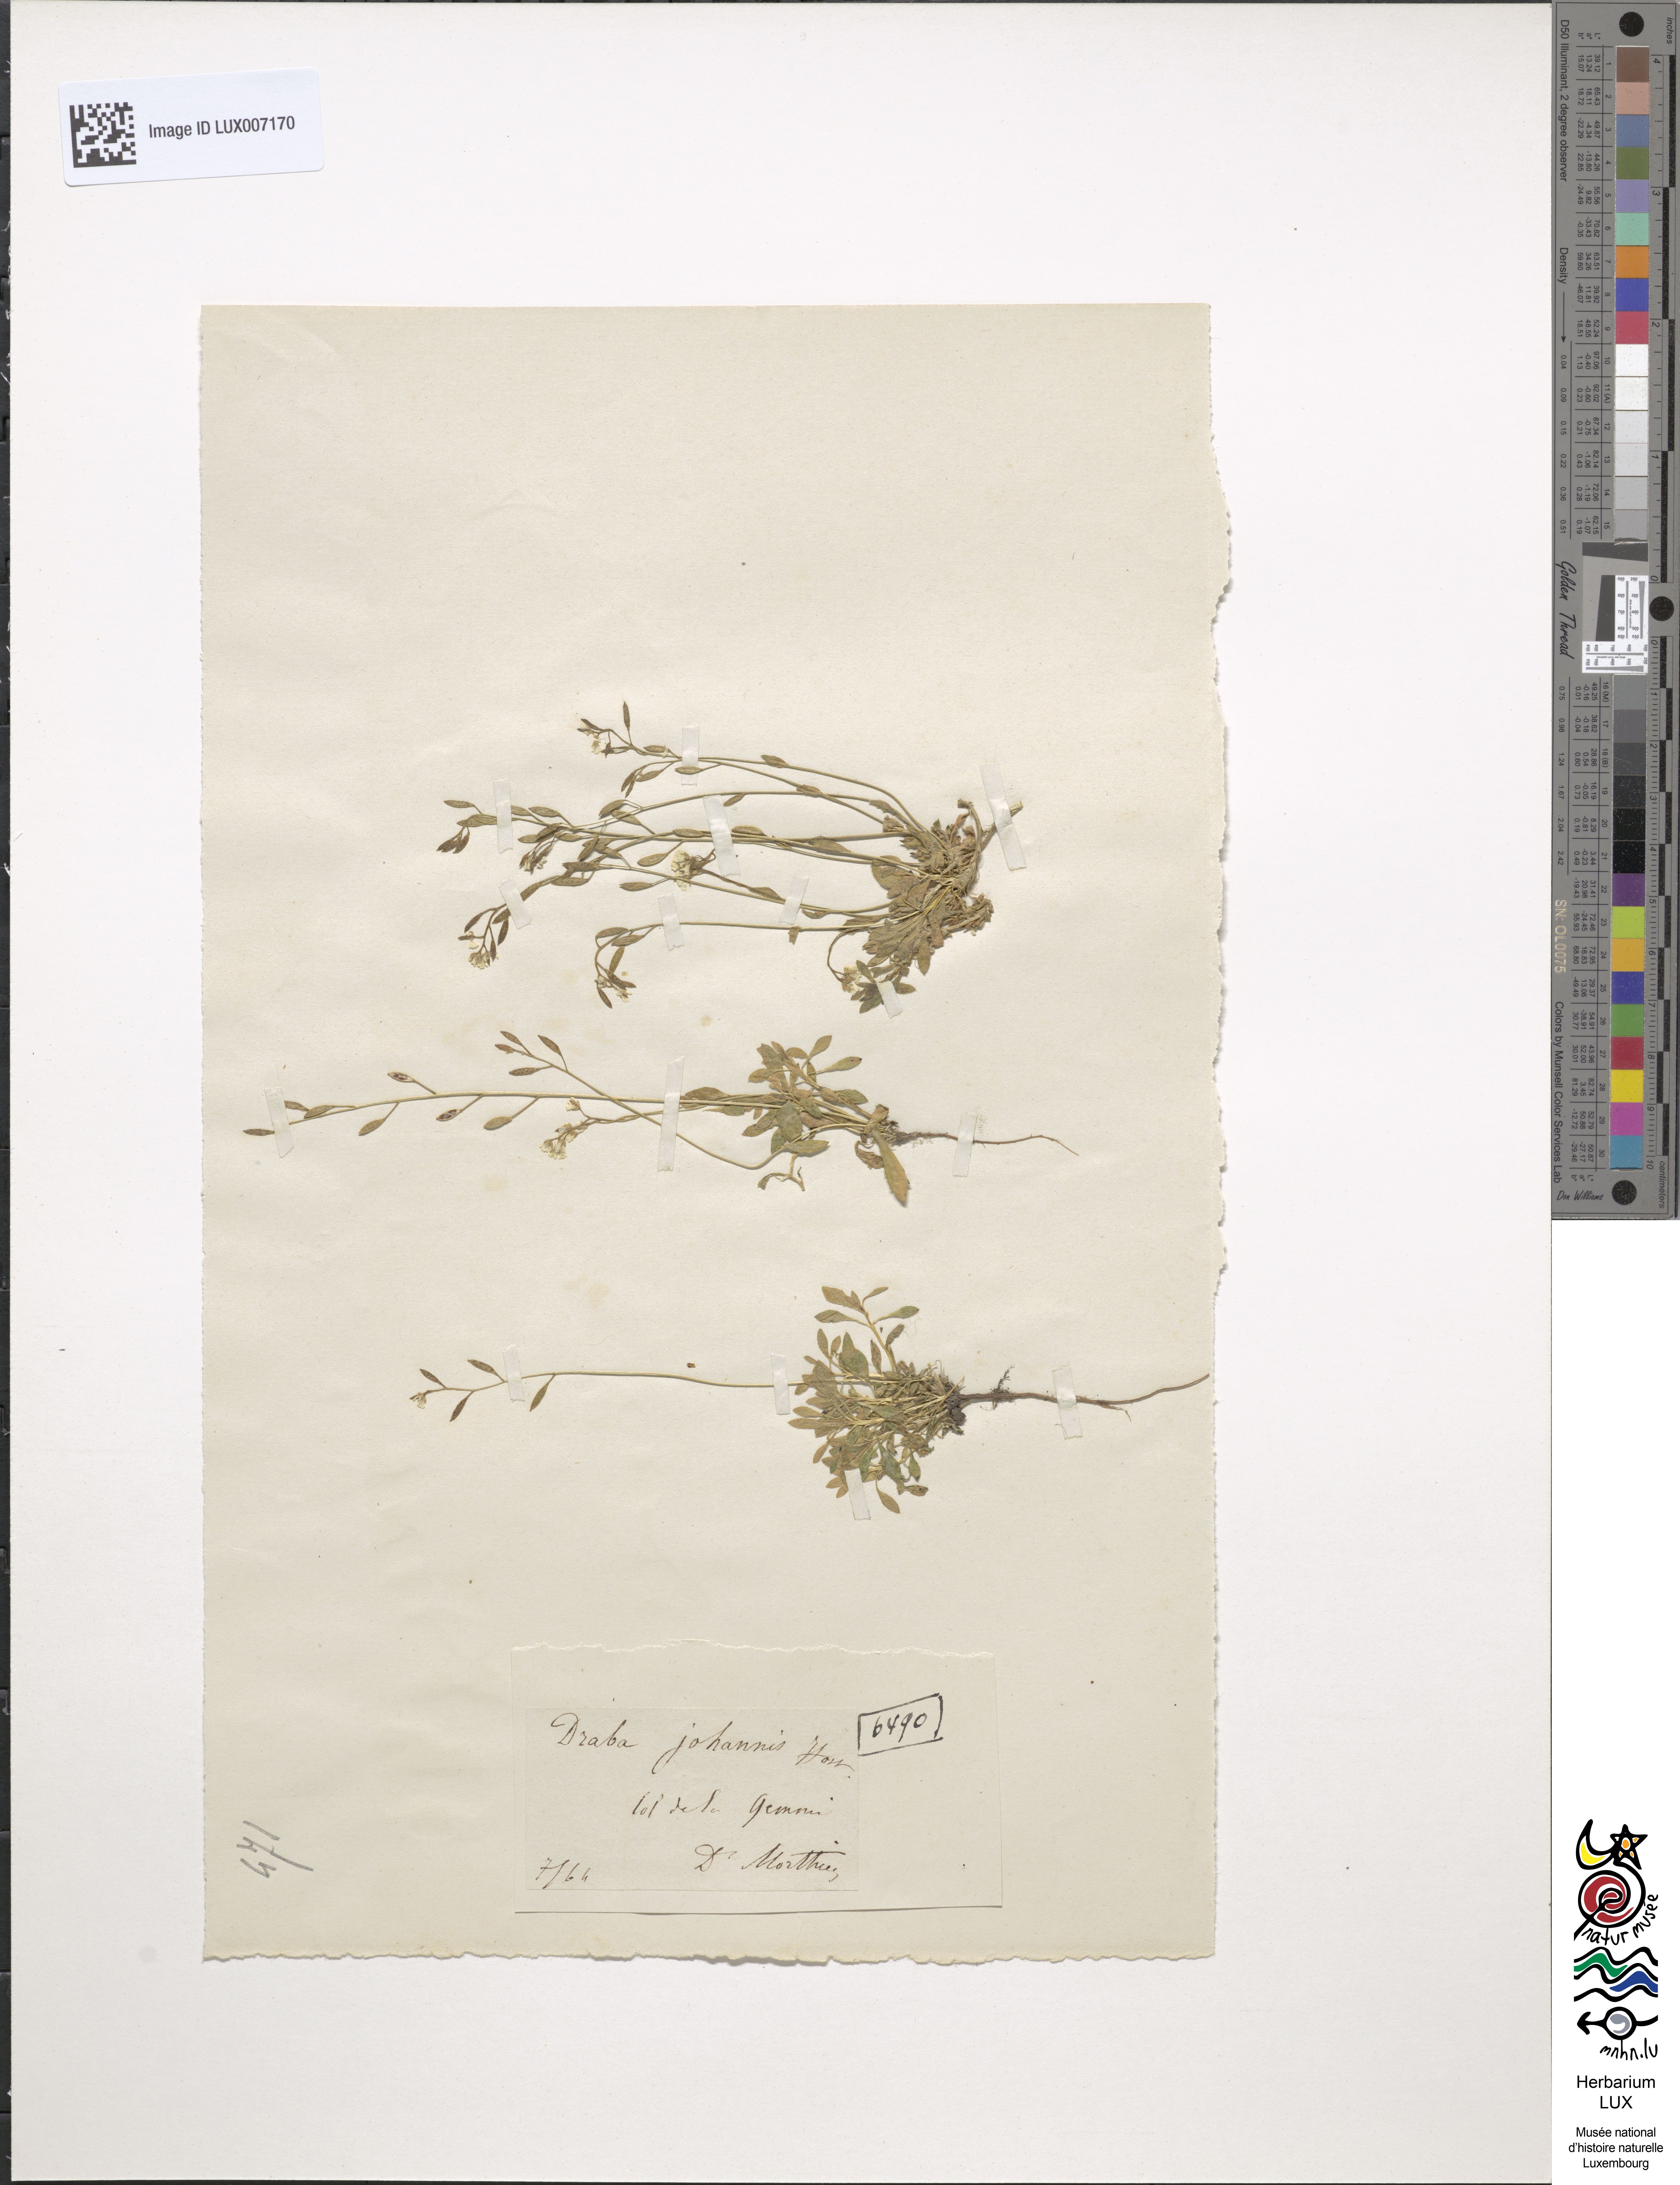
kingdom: Plantae
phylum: Tracheophyta
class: Magnoliopsida
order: Brassicales
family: Brassicaceae
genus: Draba
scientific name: Draba siliquosa
